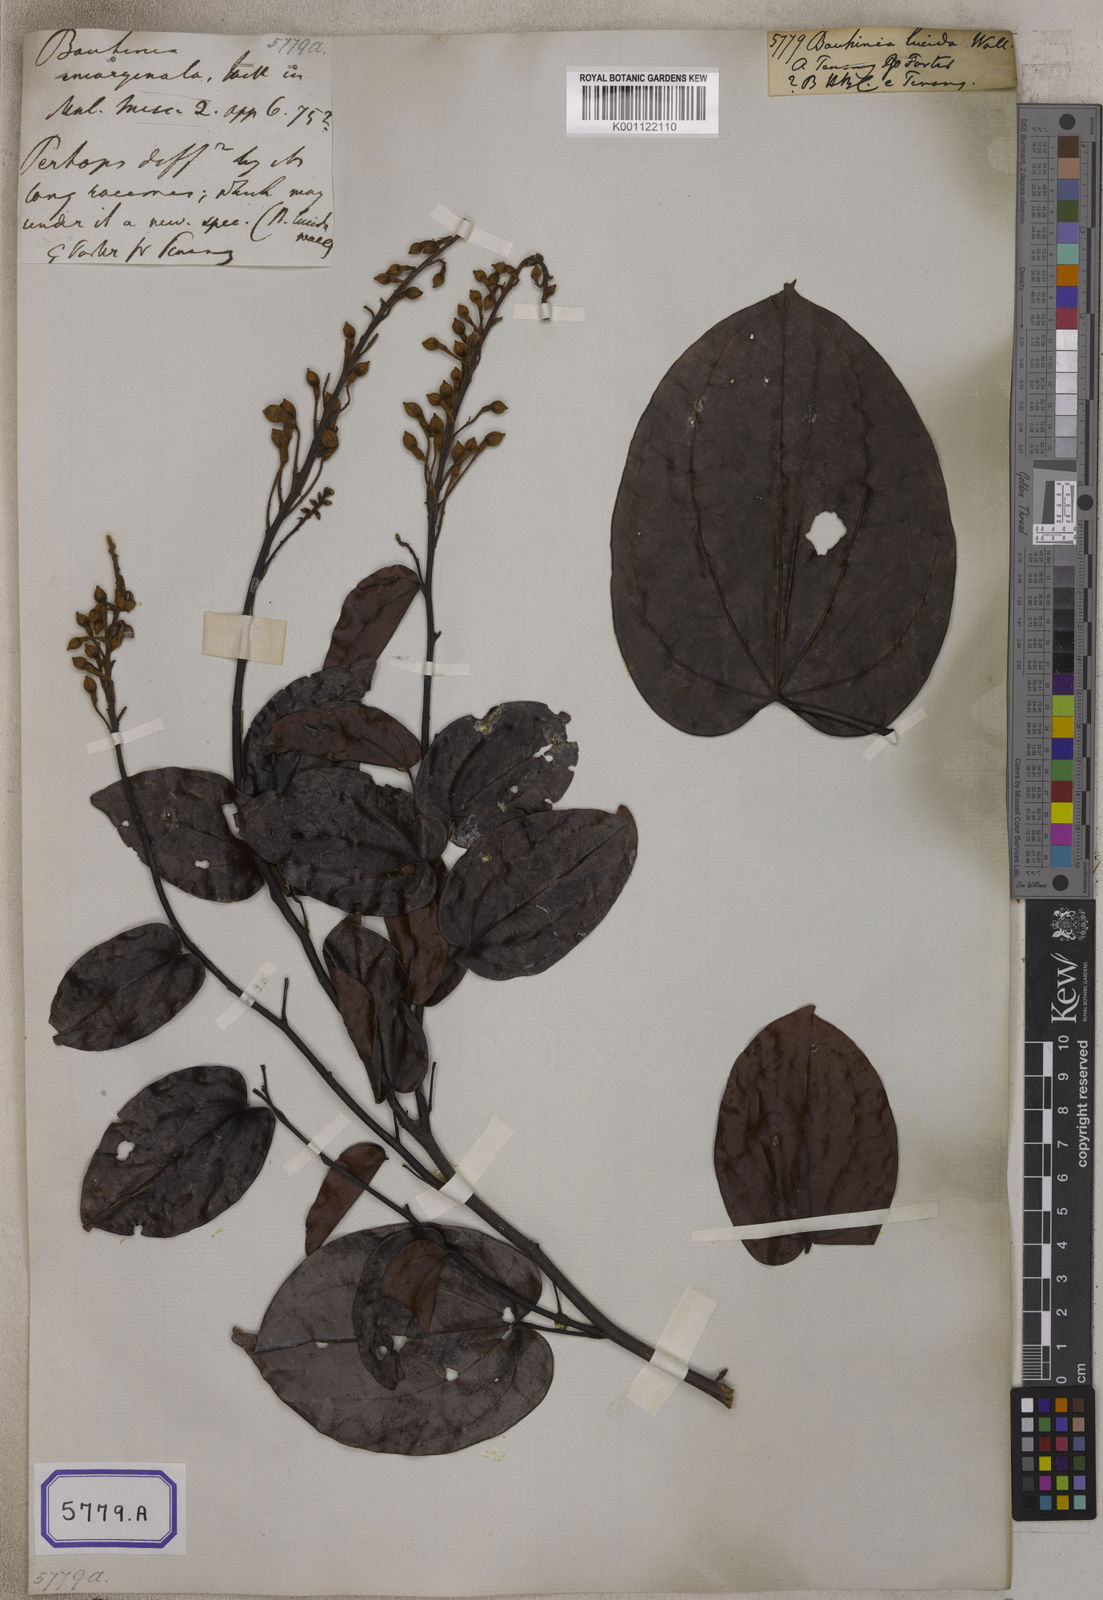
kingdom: Plantae
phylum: Tracheophyta
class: Magnoliopsida
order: Fabales
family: Fabaceae
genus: Bauhinia
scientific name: Bauhinia
